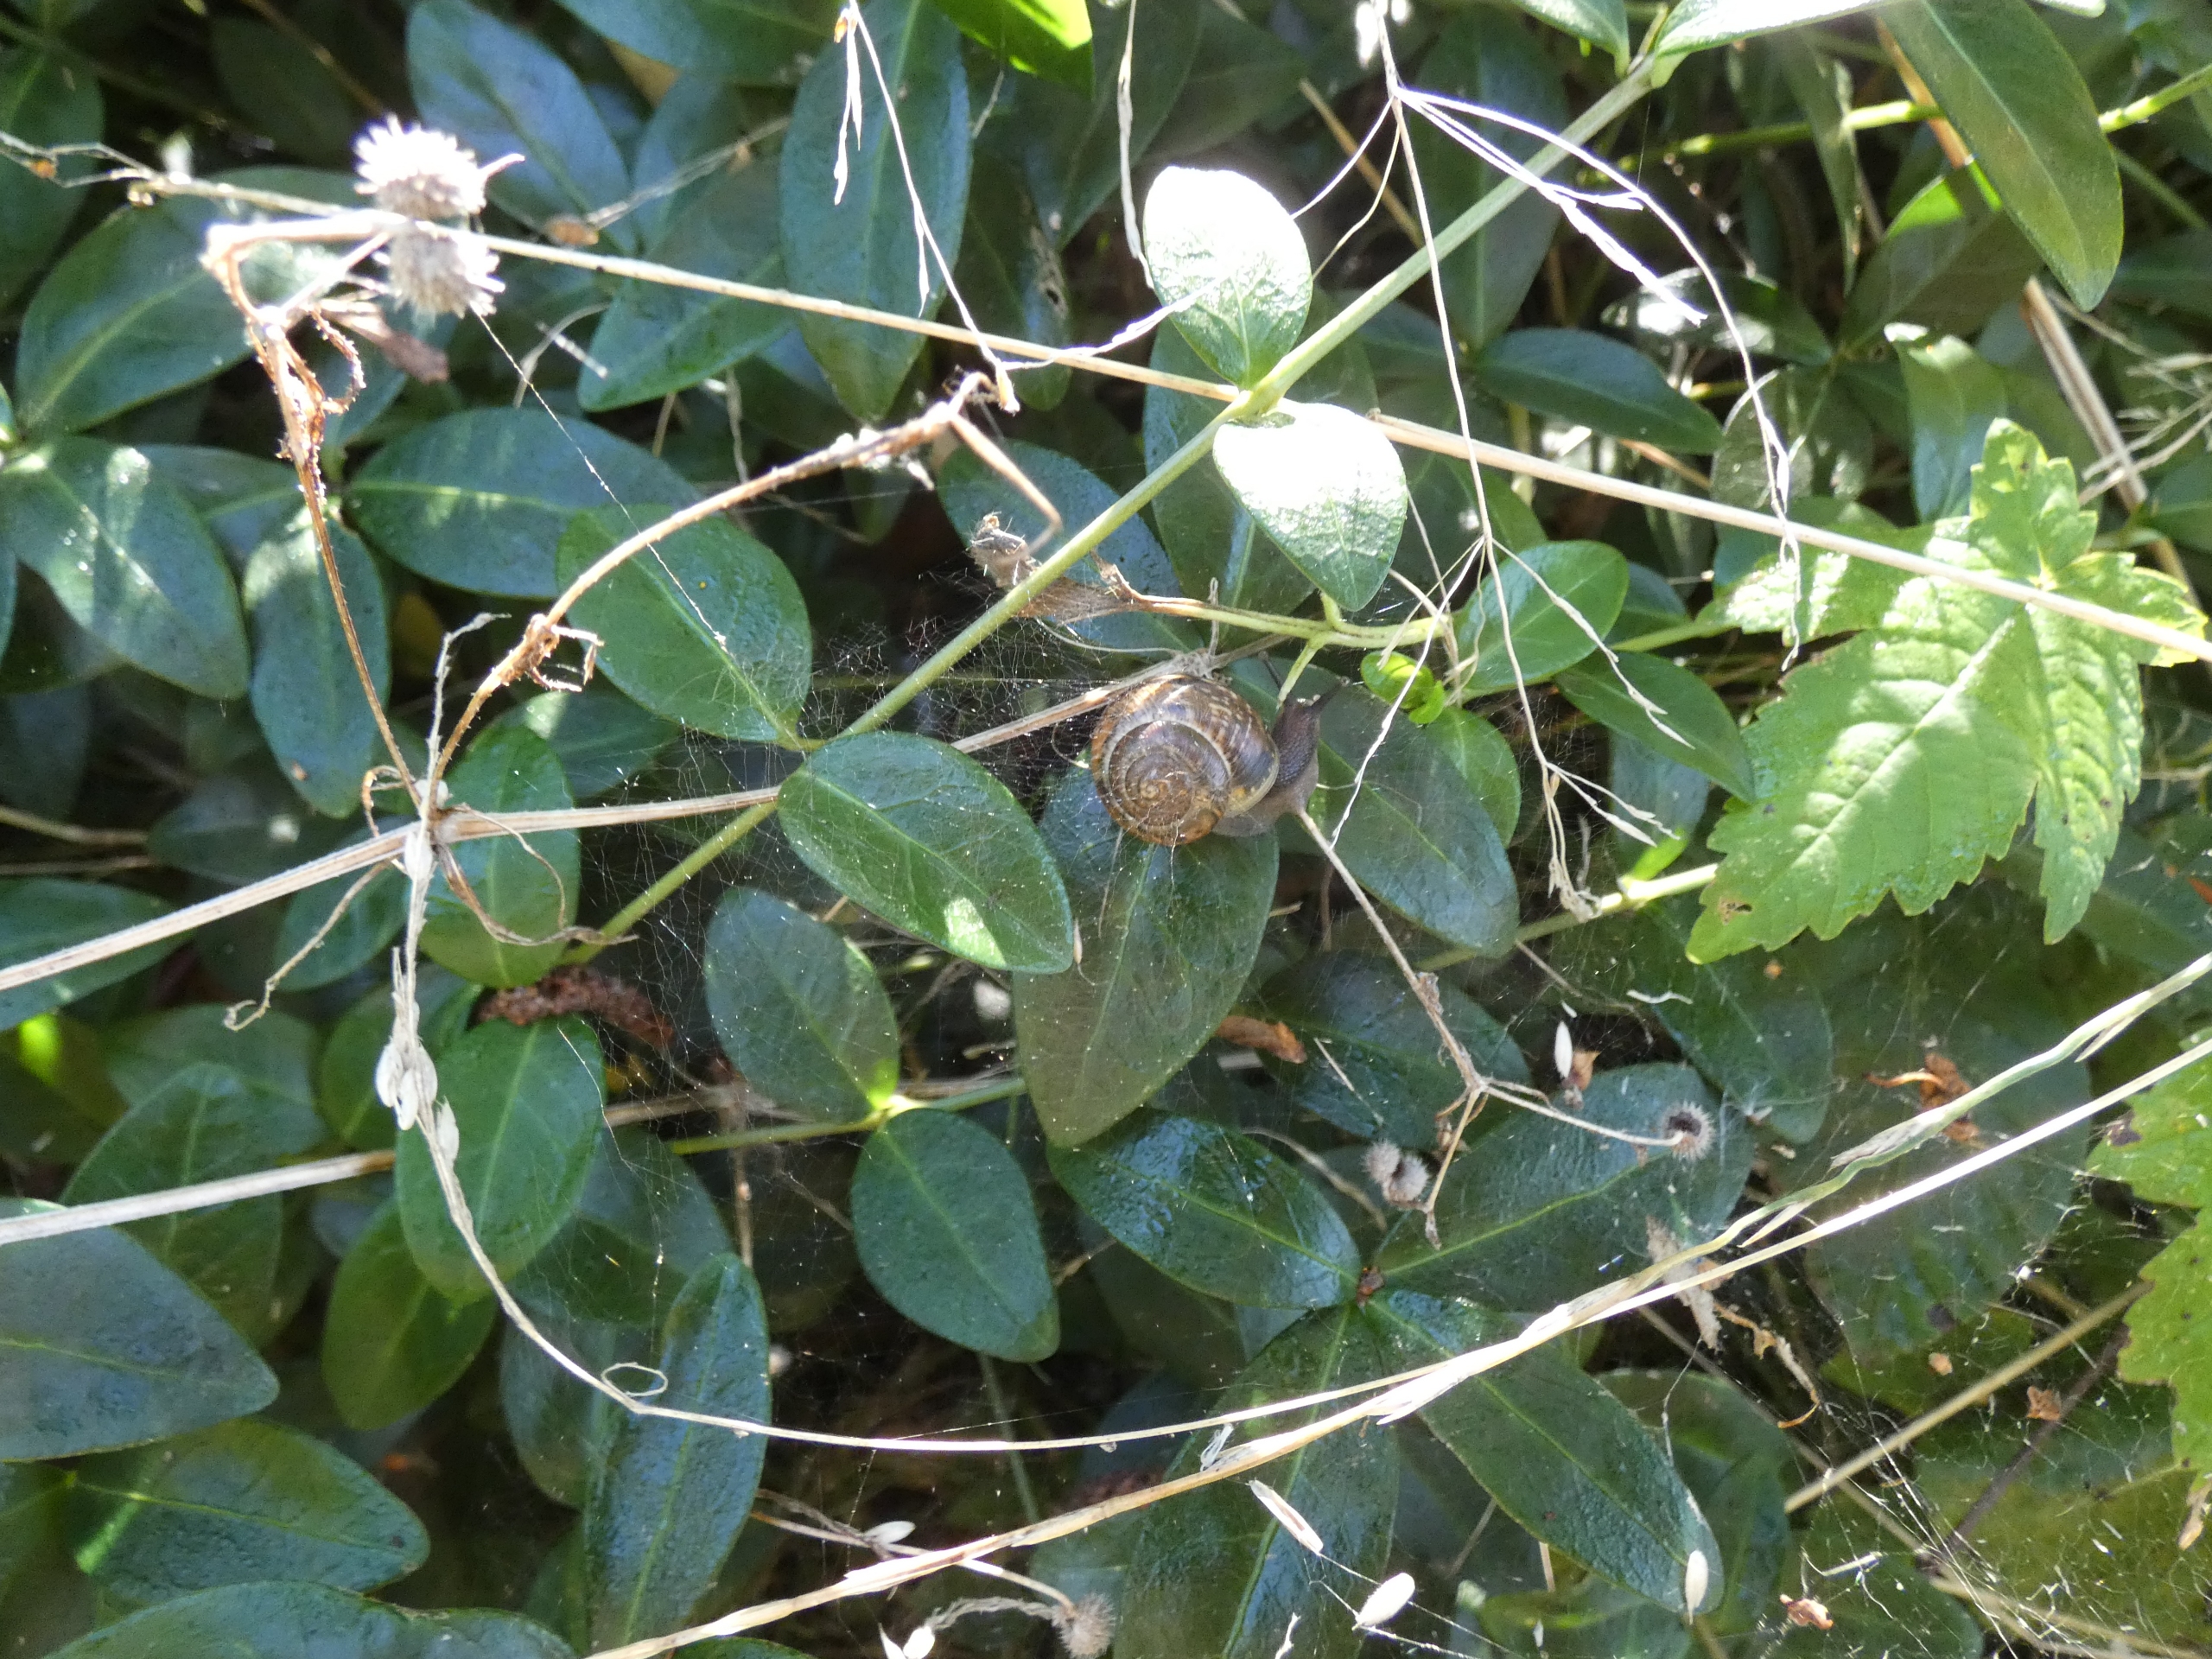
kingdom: Animalia
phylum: Mollusca
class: Gastropoda
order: Stylommatophora
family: Helicidae
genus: Arianta
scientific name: Arianta arbustorum
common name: Kratsnegl
